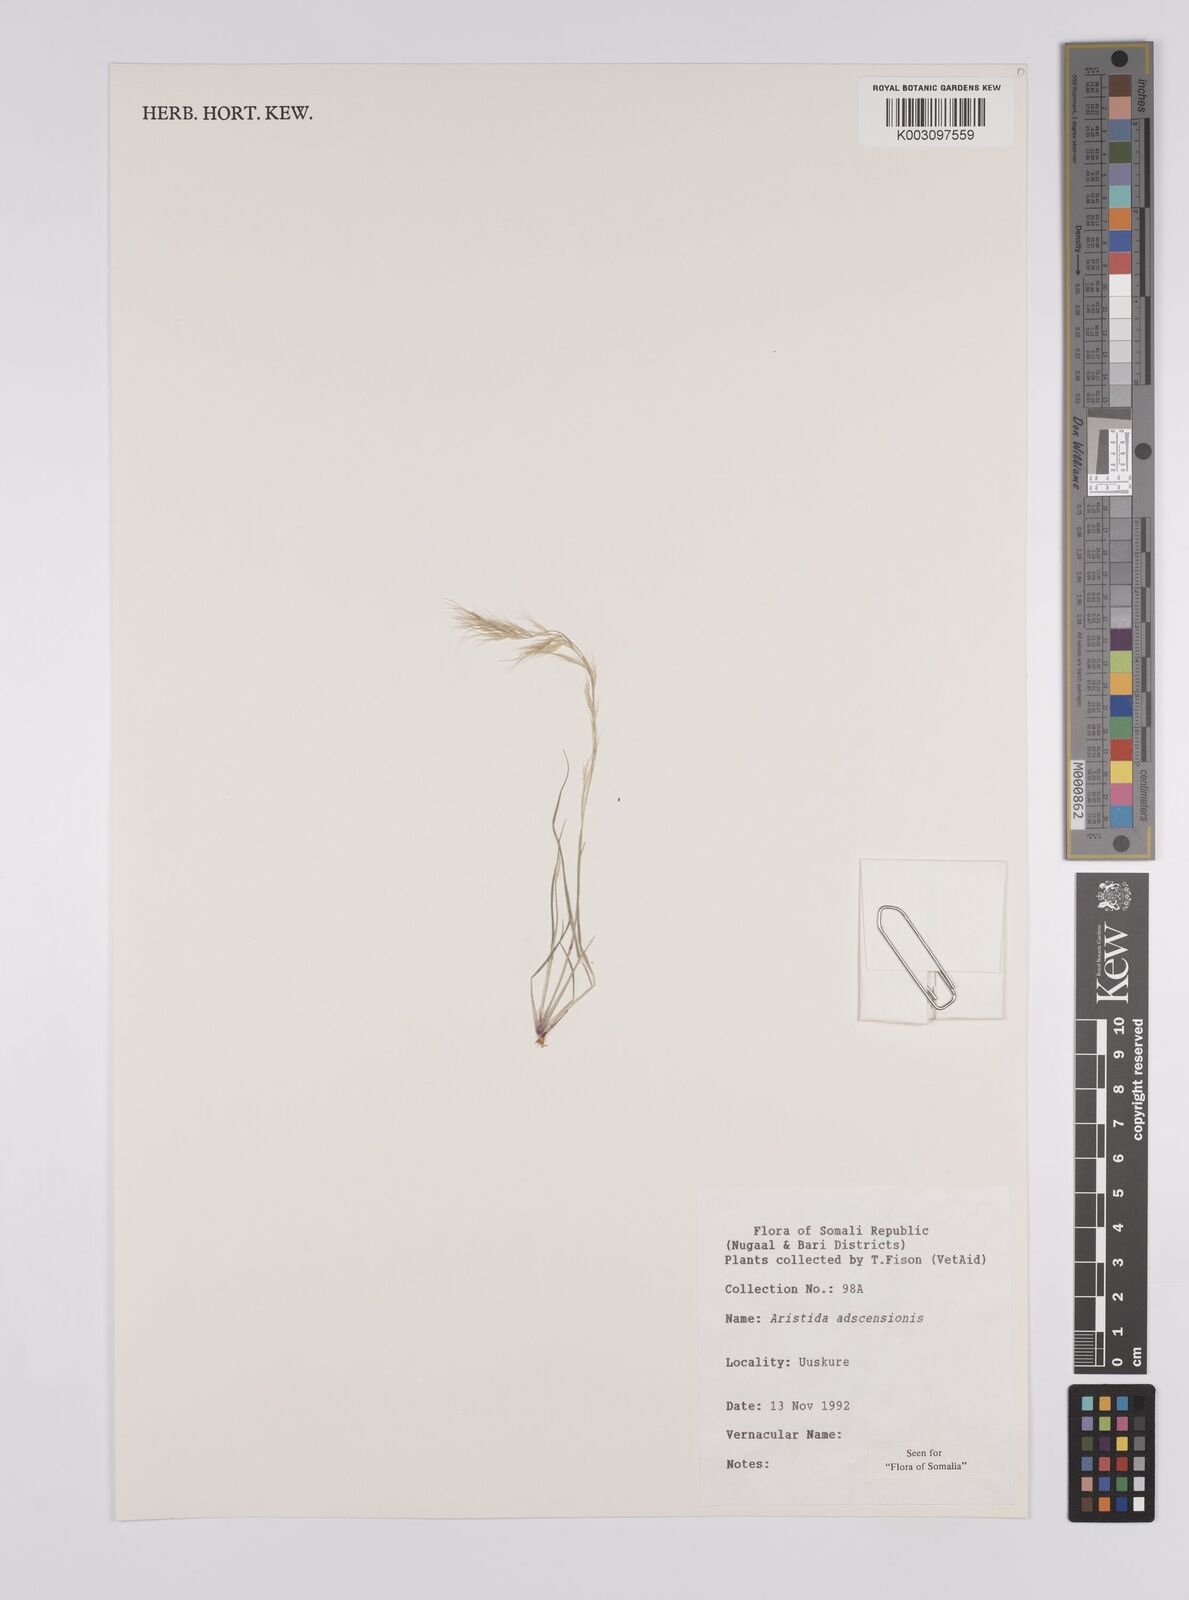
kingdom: Plantae
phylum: Tracheophyta
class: Liliopsida
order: Poales
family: Poaceae
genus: Aristida
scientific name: Aristida adscensionis
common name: Sixweeks threeawn
